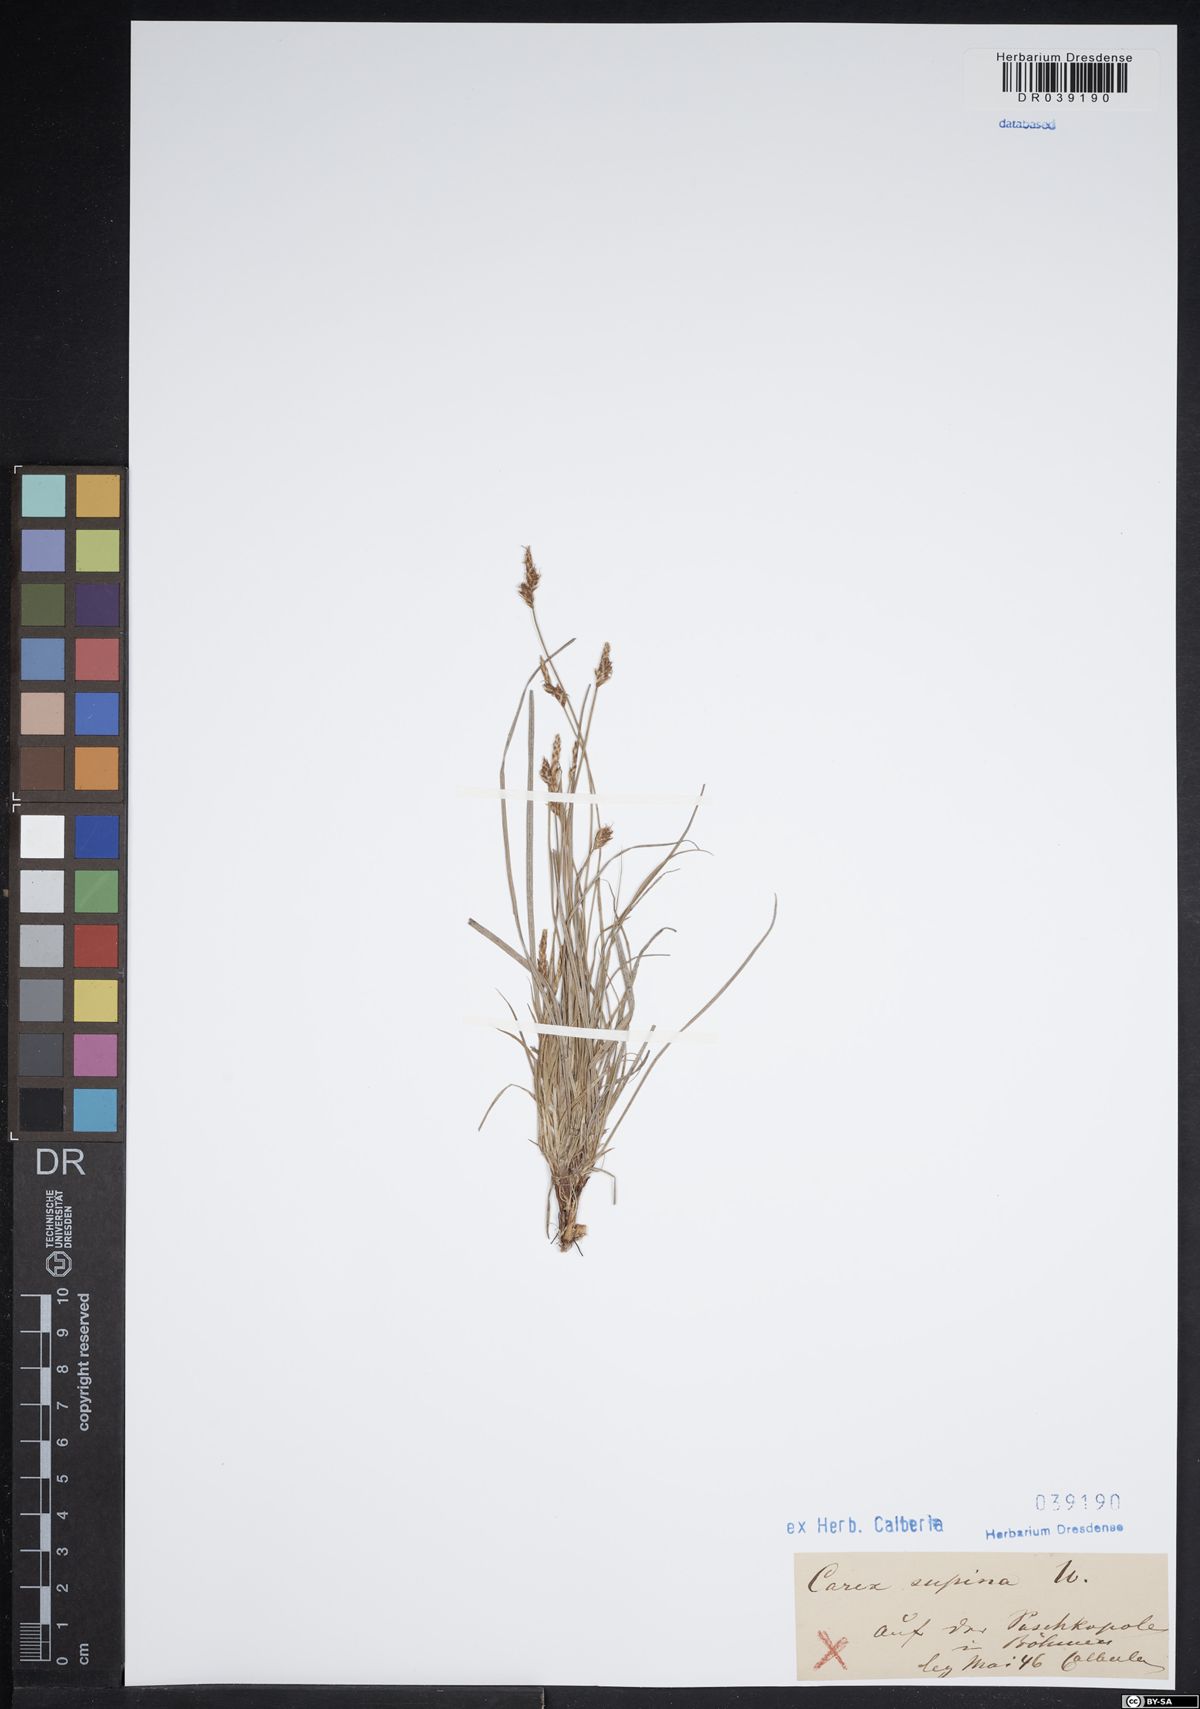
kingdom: Plantae
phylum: Tracheophyta
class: Liliopsida
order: Poales
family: Cyperaceae
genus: Carex
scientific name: Carex supina
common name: Lying-back sedge
